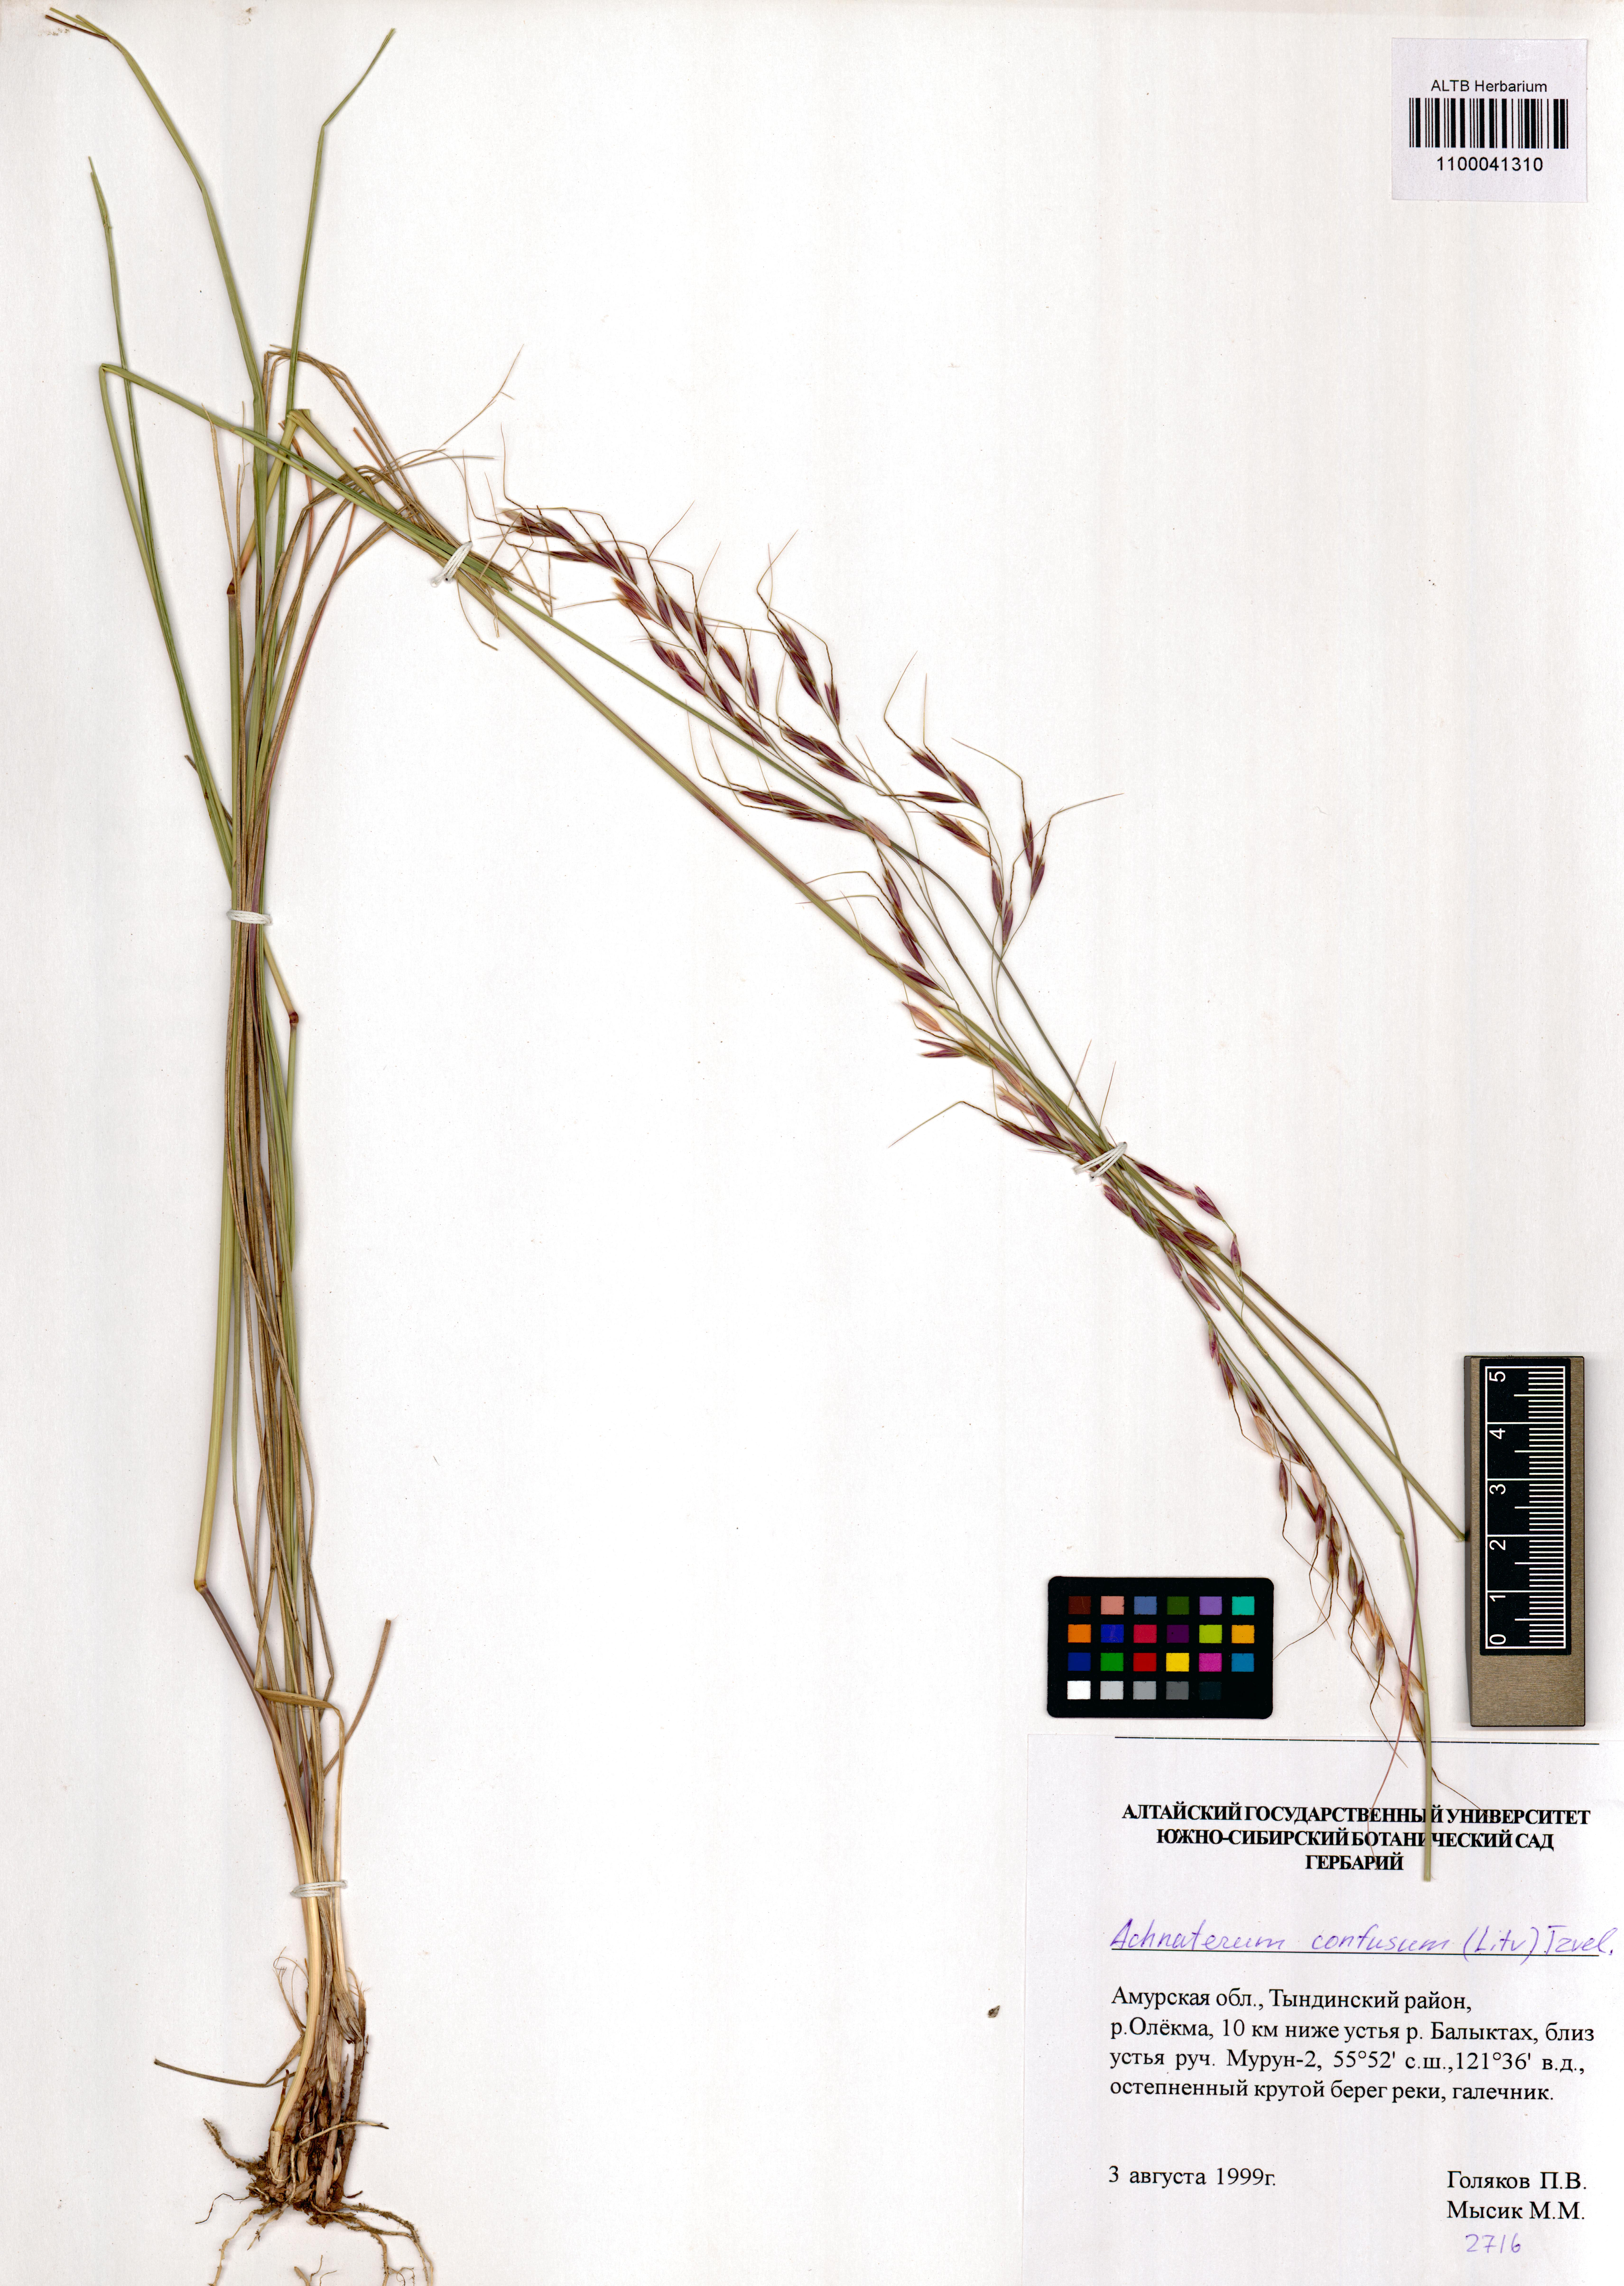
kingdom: Plantae
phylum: Tracheophyta
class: Liliopsida
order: Poales
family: Poaceae
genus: Achnatherum
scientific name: Achnatherum confusum
